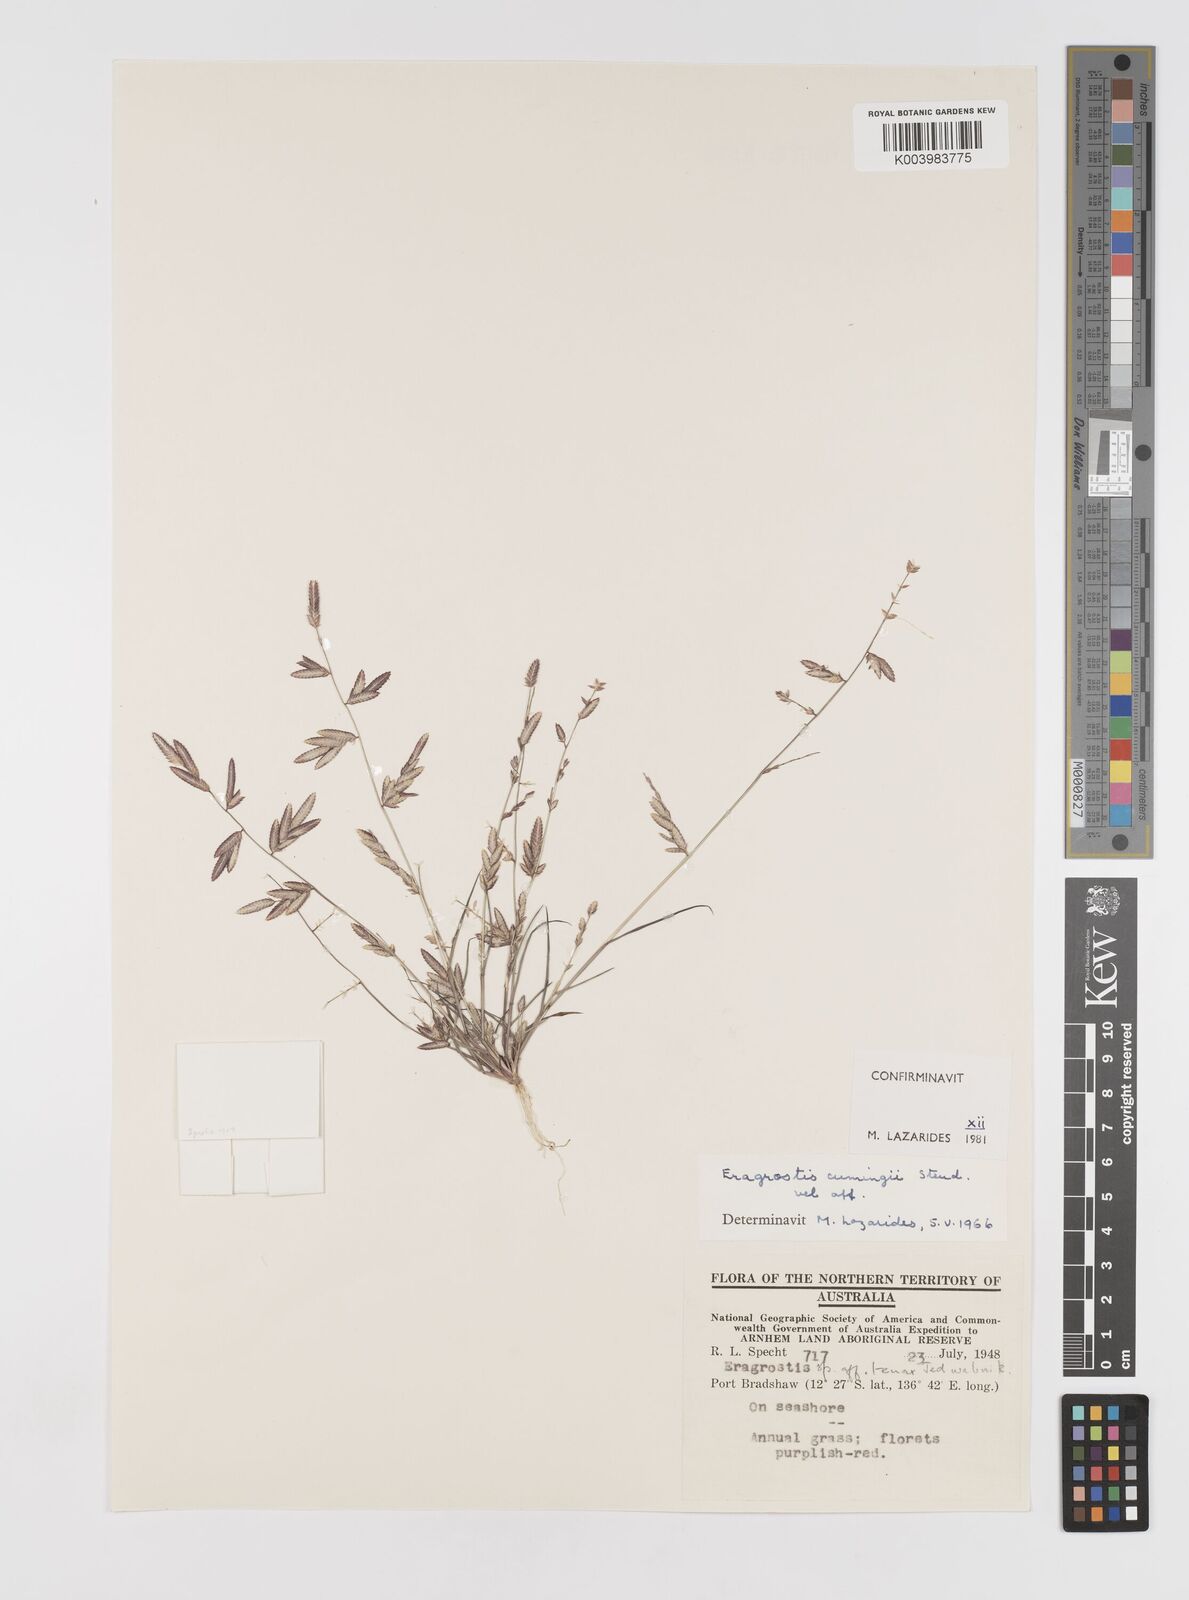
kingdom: Plantae
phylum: Tracheophyta
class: Liliopsida
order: Poales
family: Poaceae
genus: Eragrostis
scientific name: Eragrostis cumingii
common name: Cuming's lovegrass
